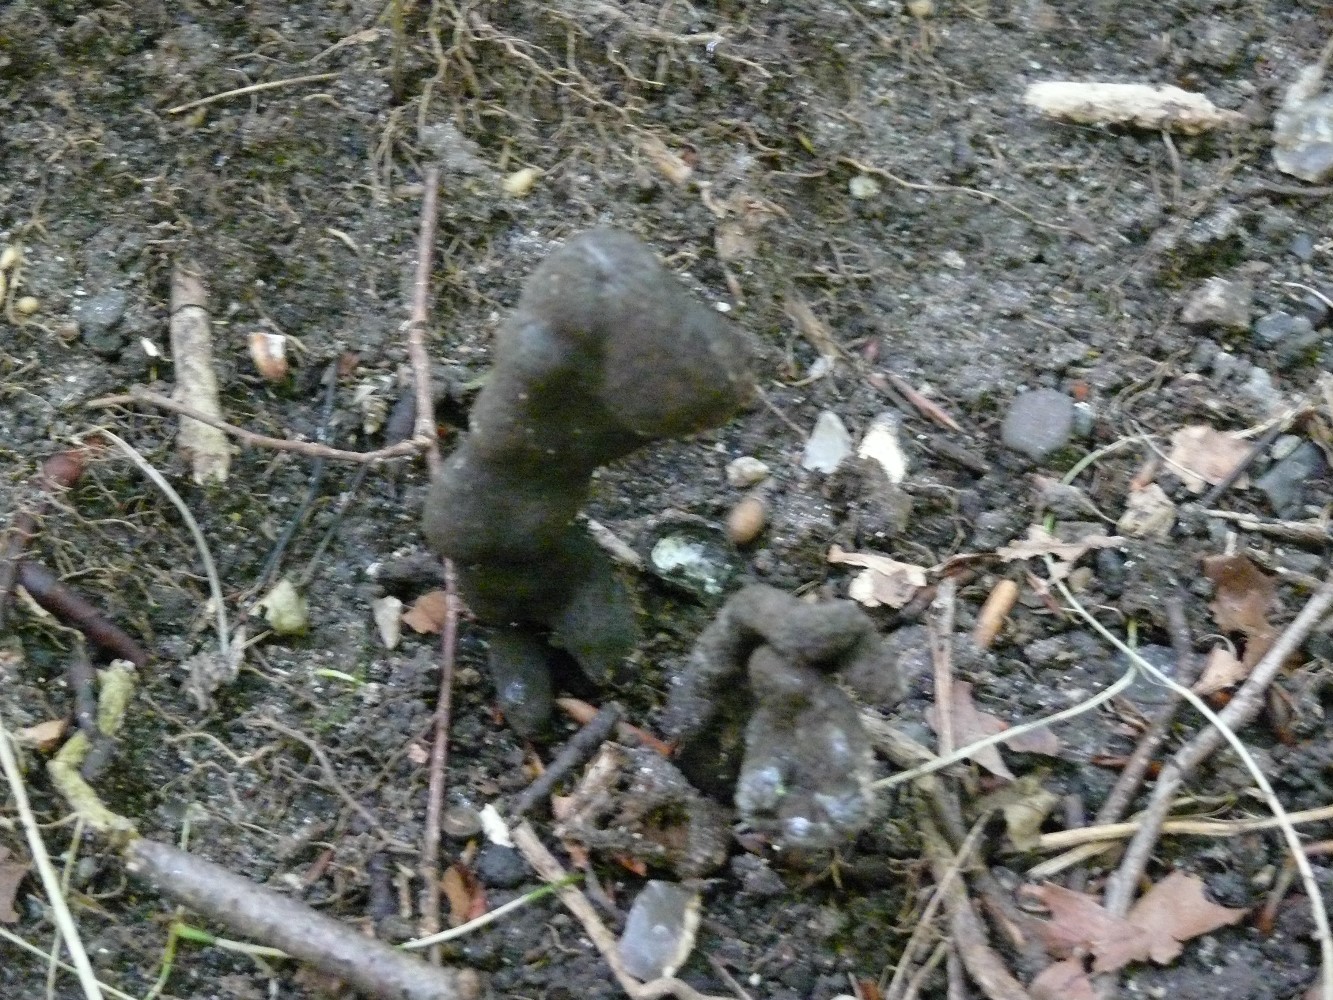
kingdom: Fungi
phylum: Ascomycota
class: Sordariomycetes
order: Xylariales
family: Xylariaceae
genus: Xylaria
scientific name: Xylaria polymorpha
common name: kølle-stødsvamp
